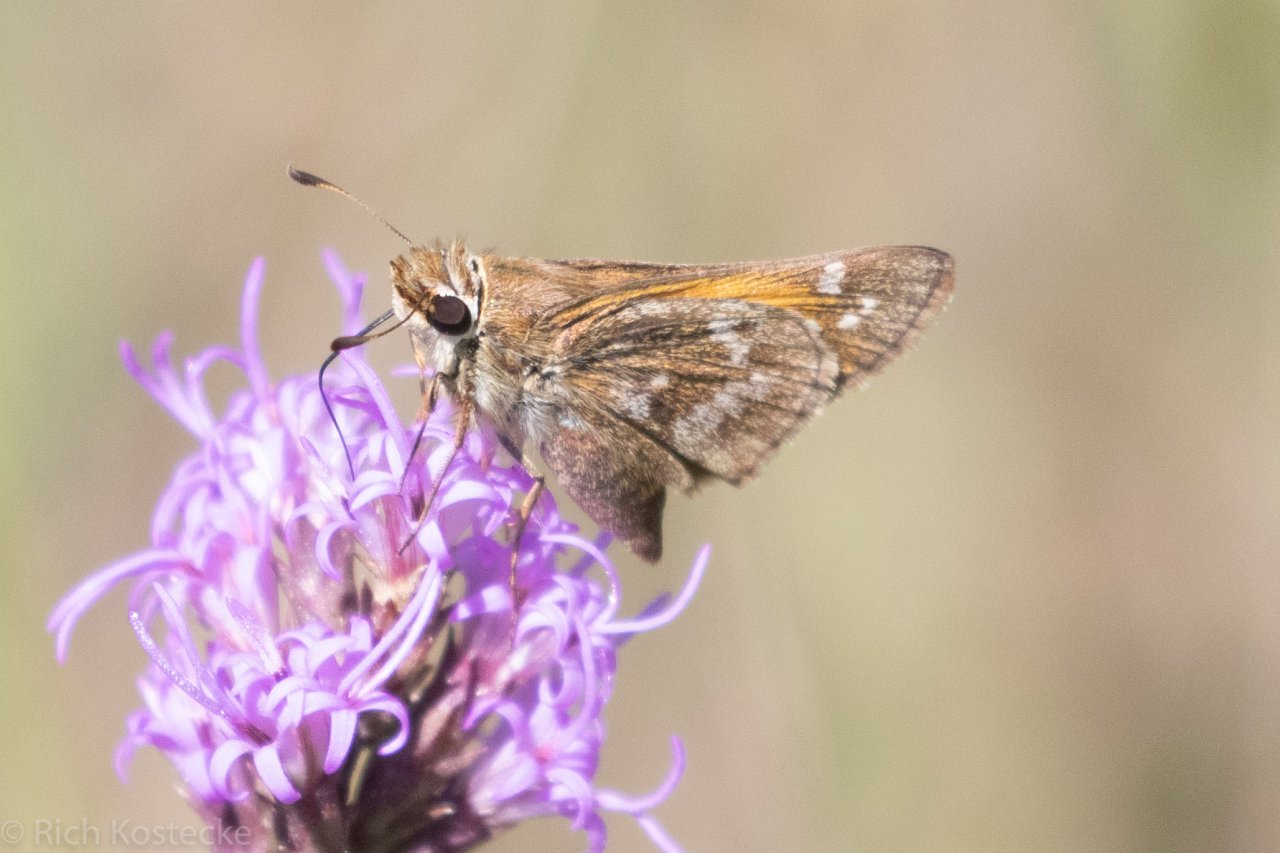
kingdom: Animalia
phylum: Arthropoda
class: Insecta
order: Lepidoptera
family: Hesperiidae
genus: Atalopedes
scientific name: Atalopedes campestris
